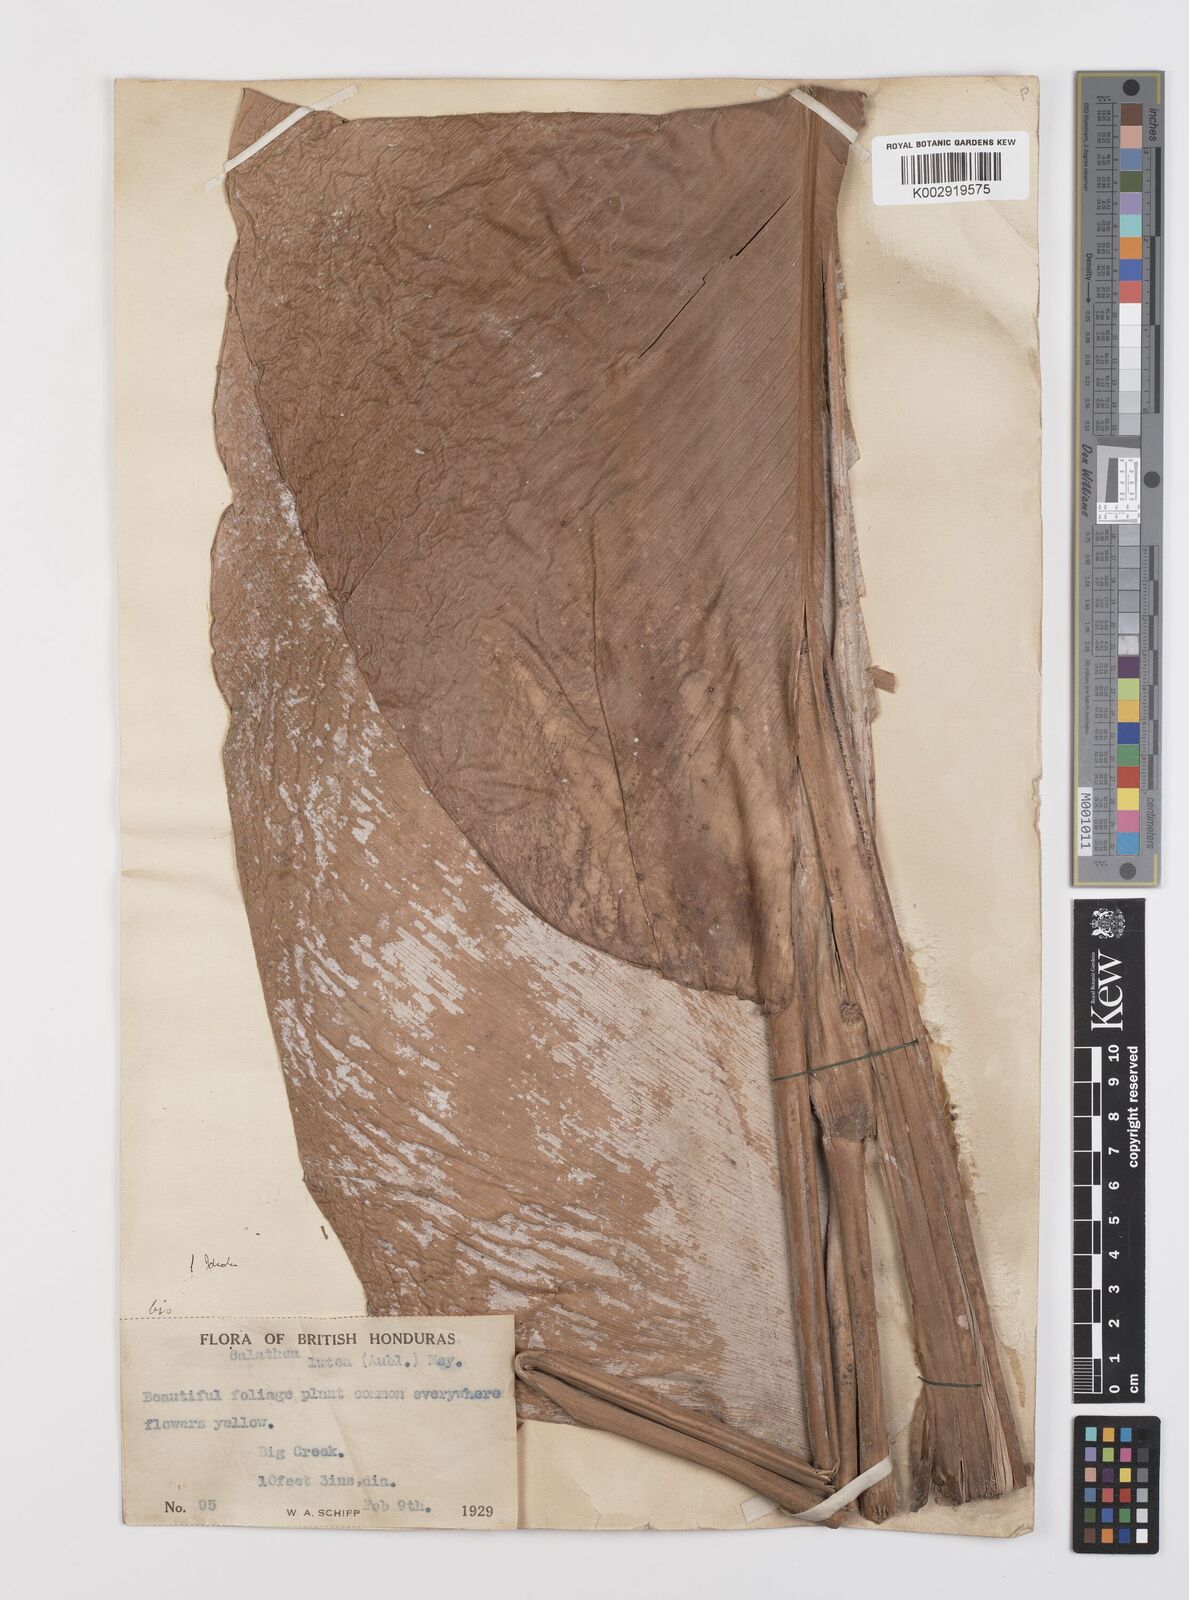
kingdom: Plantae
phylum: Tracheophyta
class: Liliopsida
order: Zingiberales
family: Marantaceae
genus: Calathea
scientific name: Calathea lutea
